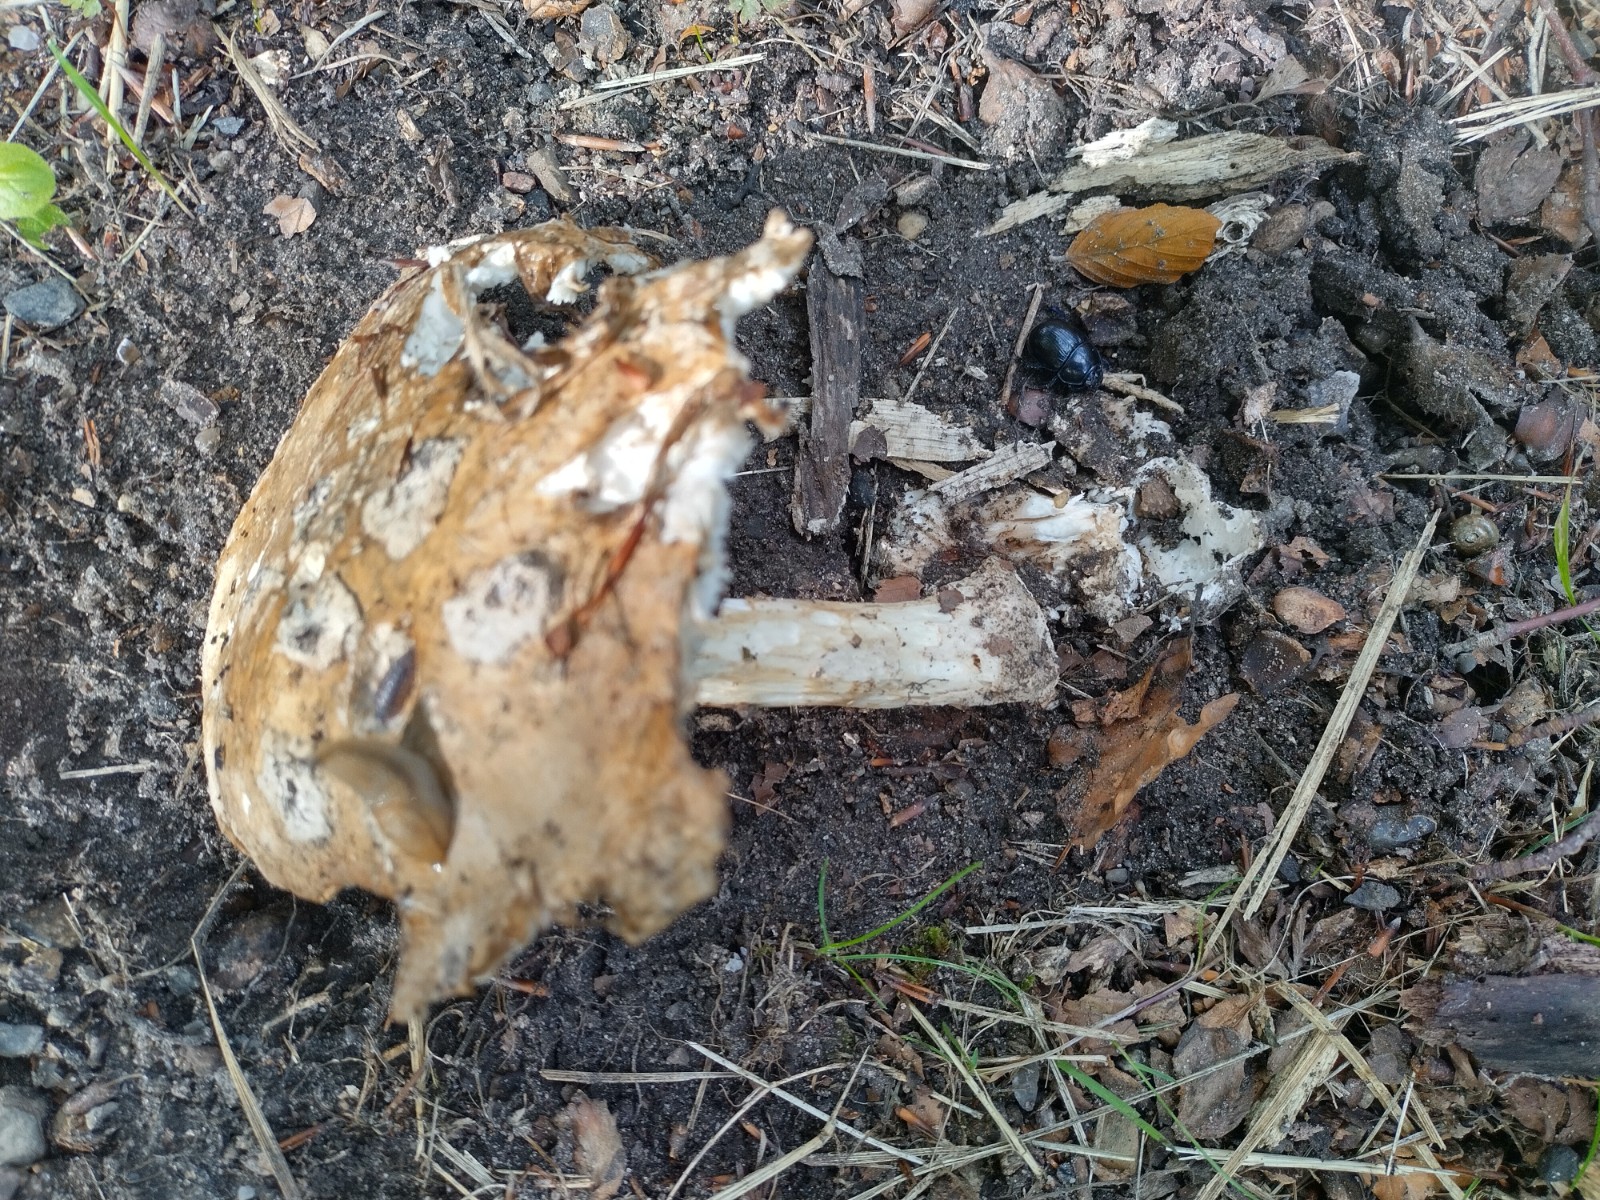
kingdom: Fungi
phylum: Basidiomycota
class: Agaricomycetes
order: Agaricales
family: Amanitaceae
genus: Amanita
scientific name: Amanita
